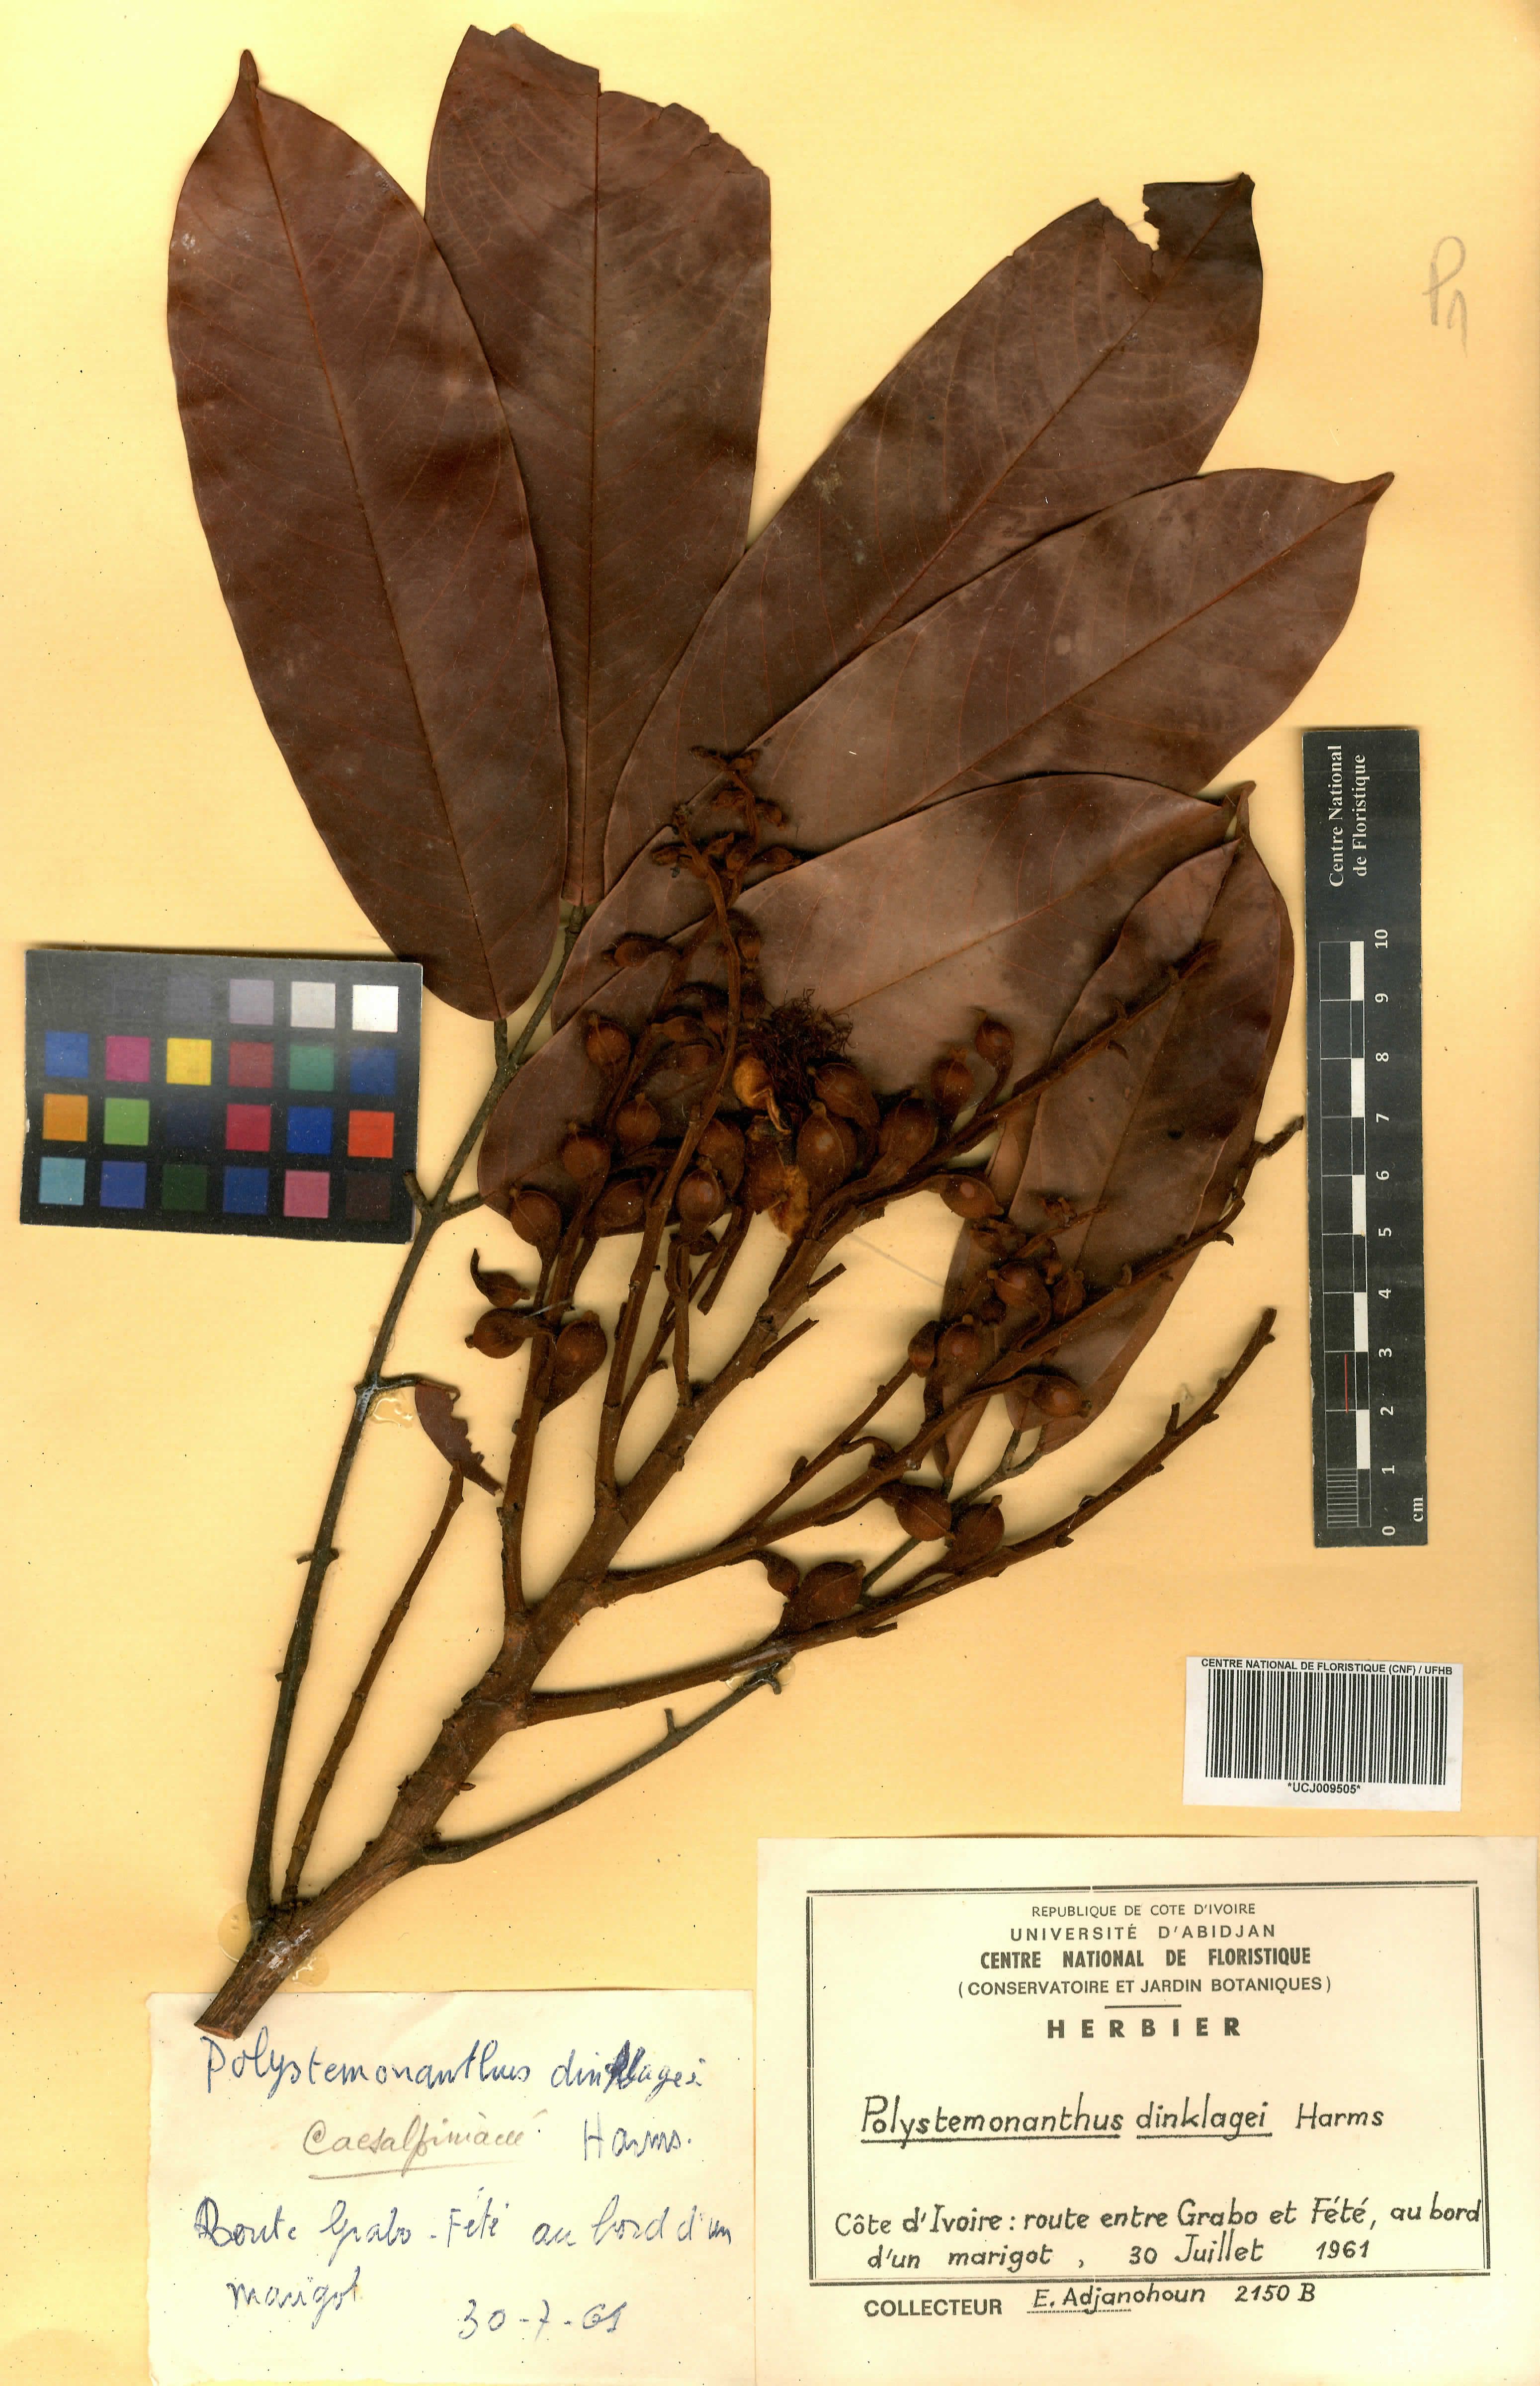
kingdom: Plantae
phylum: Tracheophyta
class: Magnoliopsida
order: Fabales
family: Fabaceae
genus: Polystemonanthus
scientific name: Polystemonanthus dinklagei
